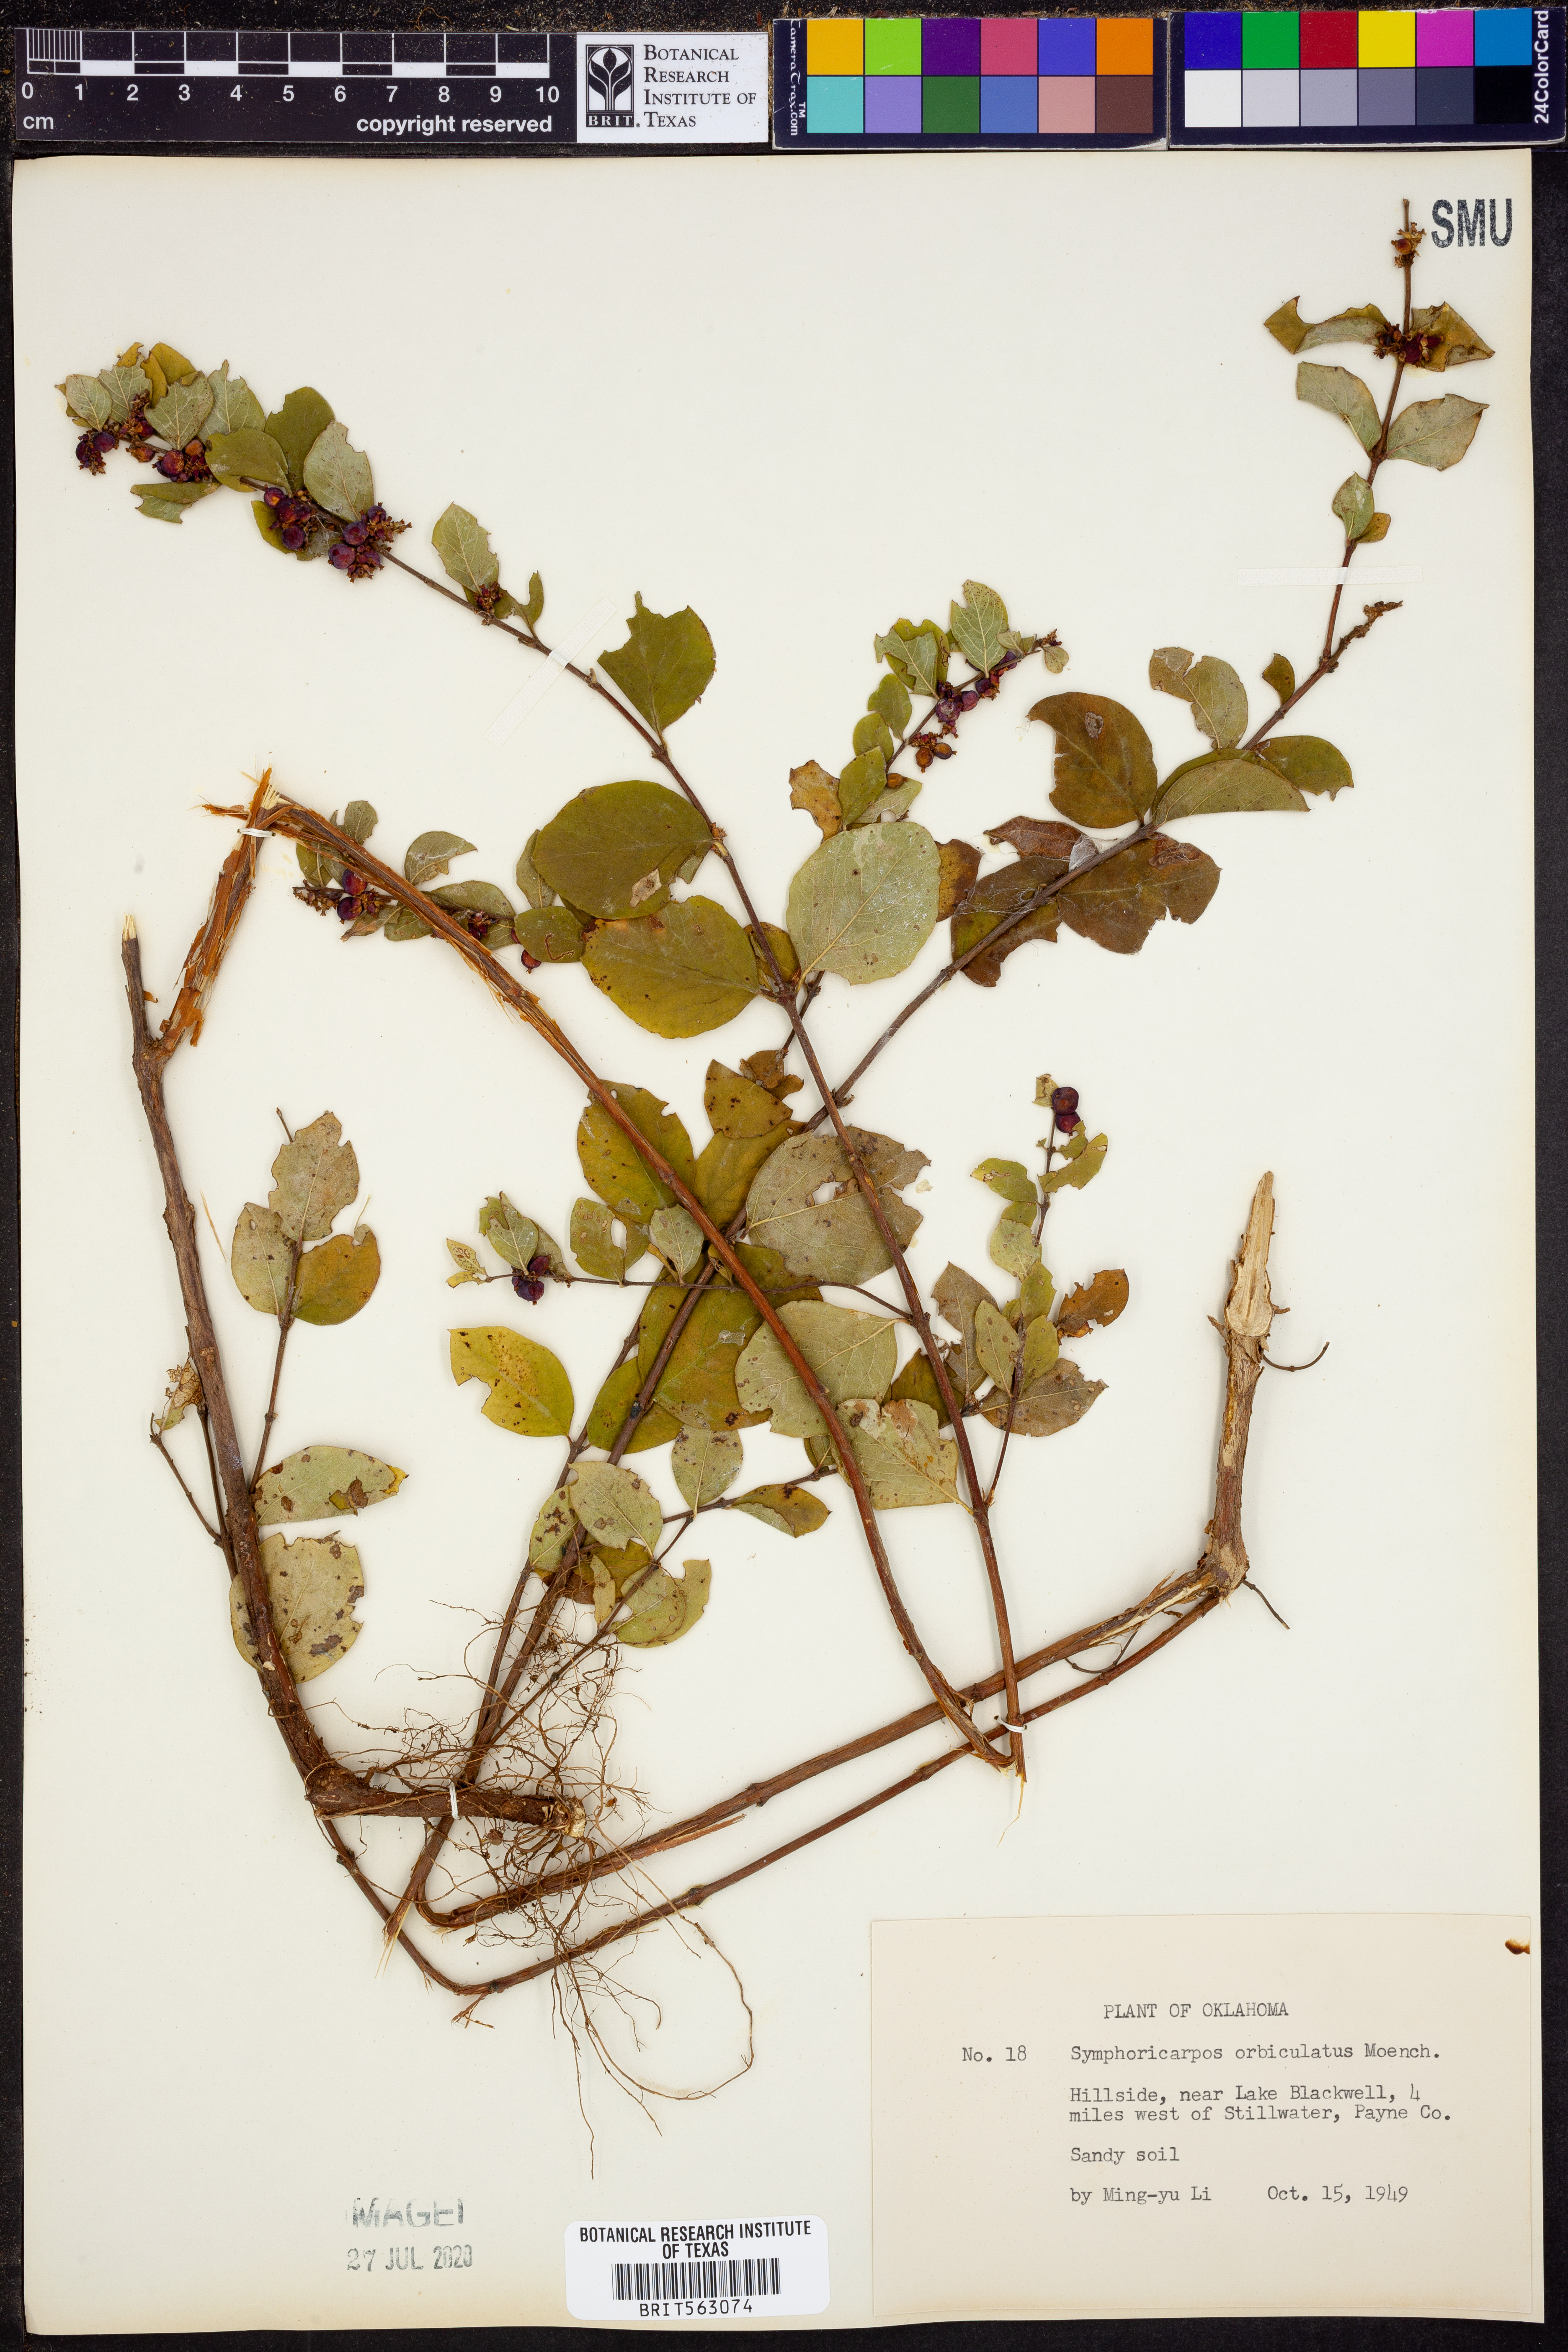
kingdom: Plantae
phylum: Tracheophyta
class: Magnoliopsida
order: Dipsacales
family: Caprifoliaceae
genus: Symphoricarpos
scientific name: Symphoricarpos orbiculatus
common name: Coralberry
